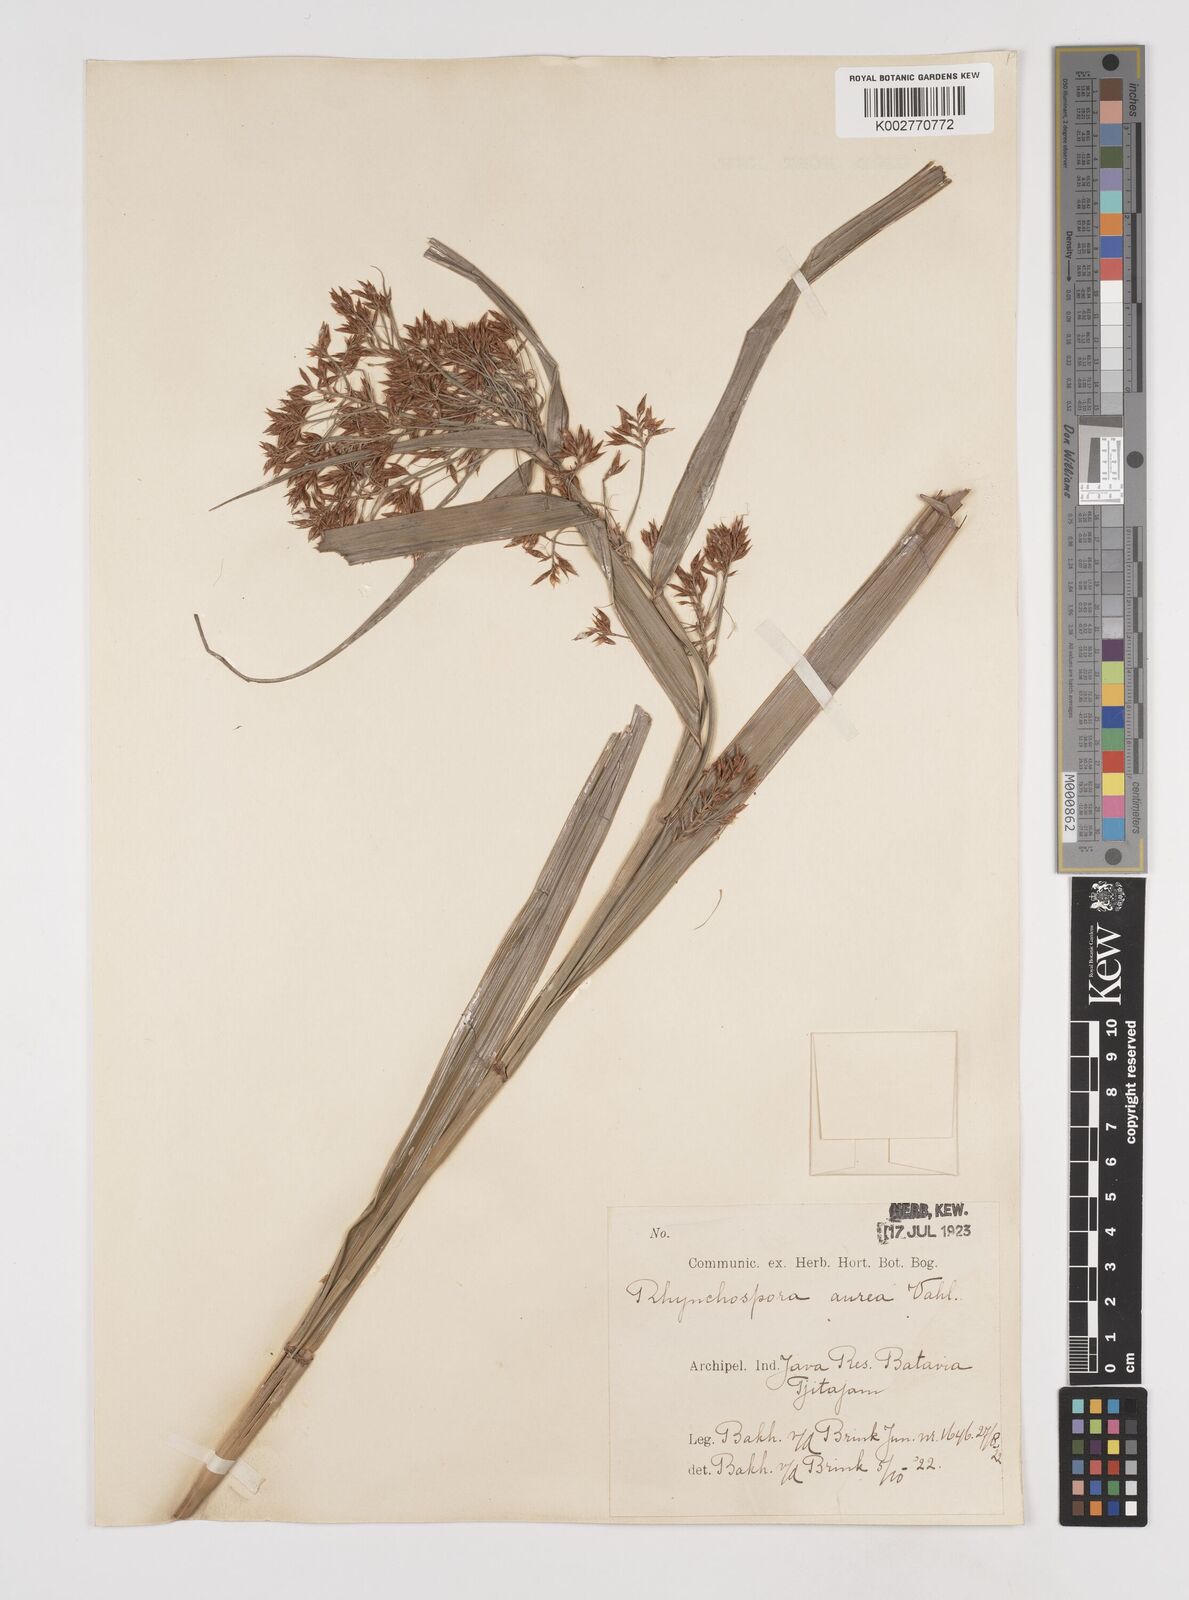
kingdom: Plantae
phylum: Tracheophyta
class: Liliopsida
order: Poales
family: Cyperaceae
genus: Rhynchospora
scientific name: Rhynchospora corymbosa
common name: Golden beak sedge
